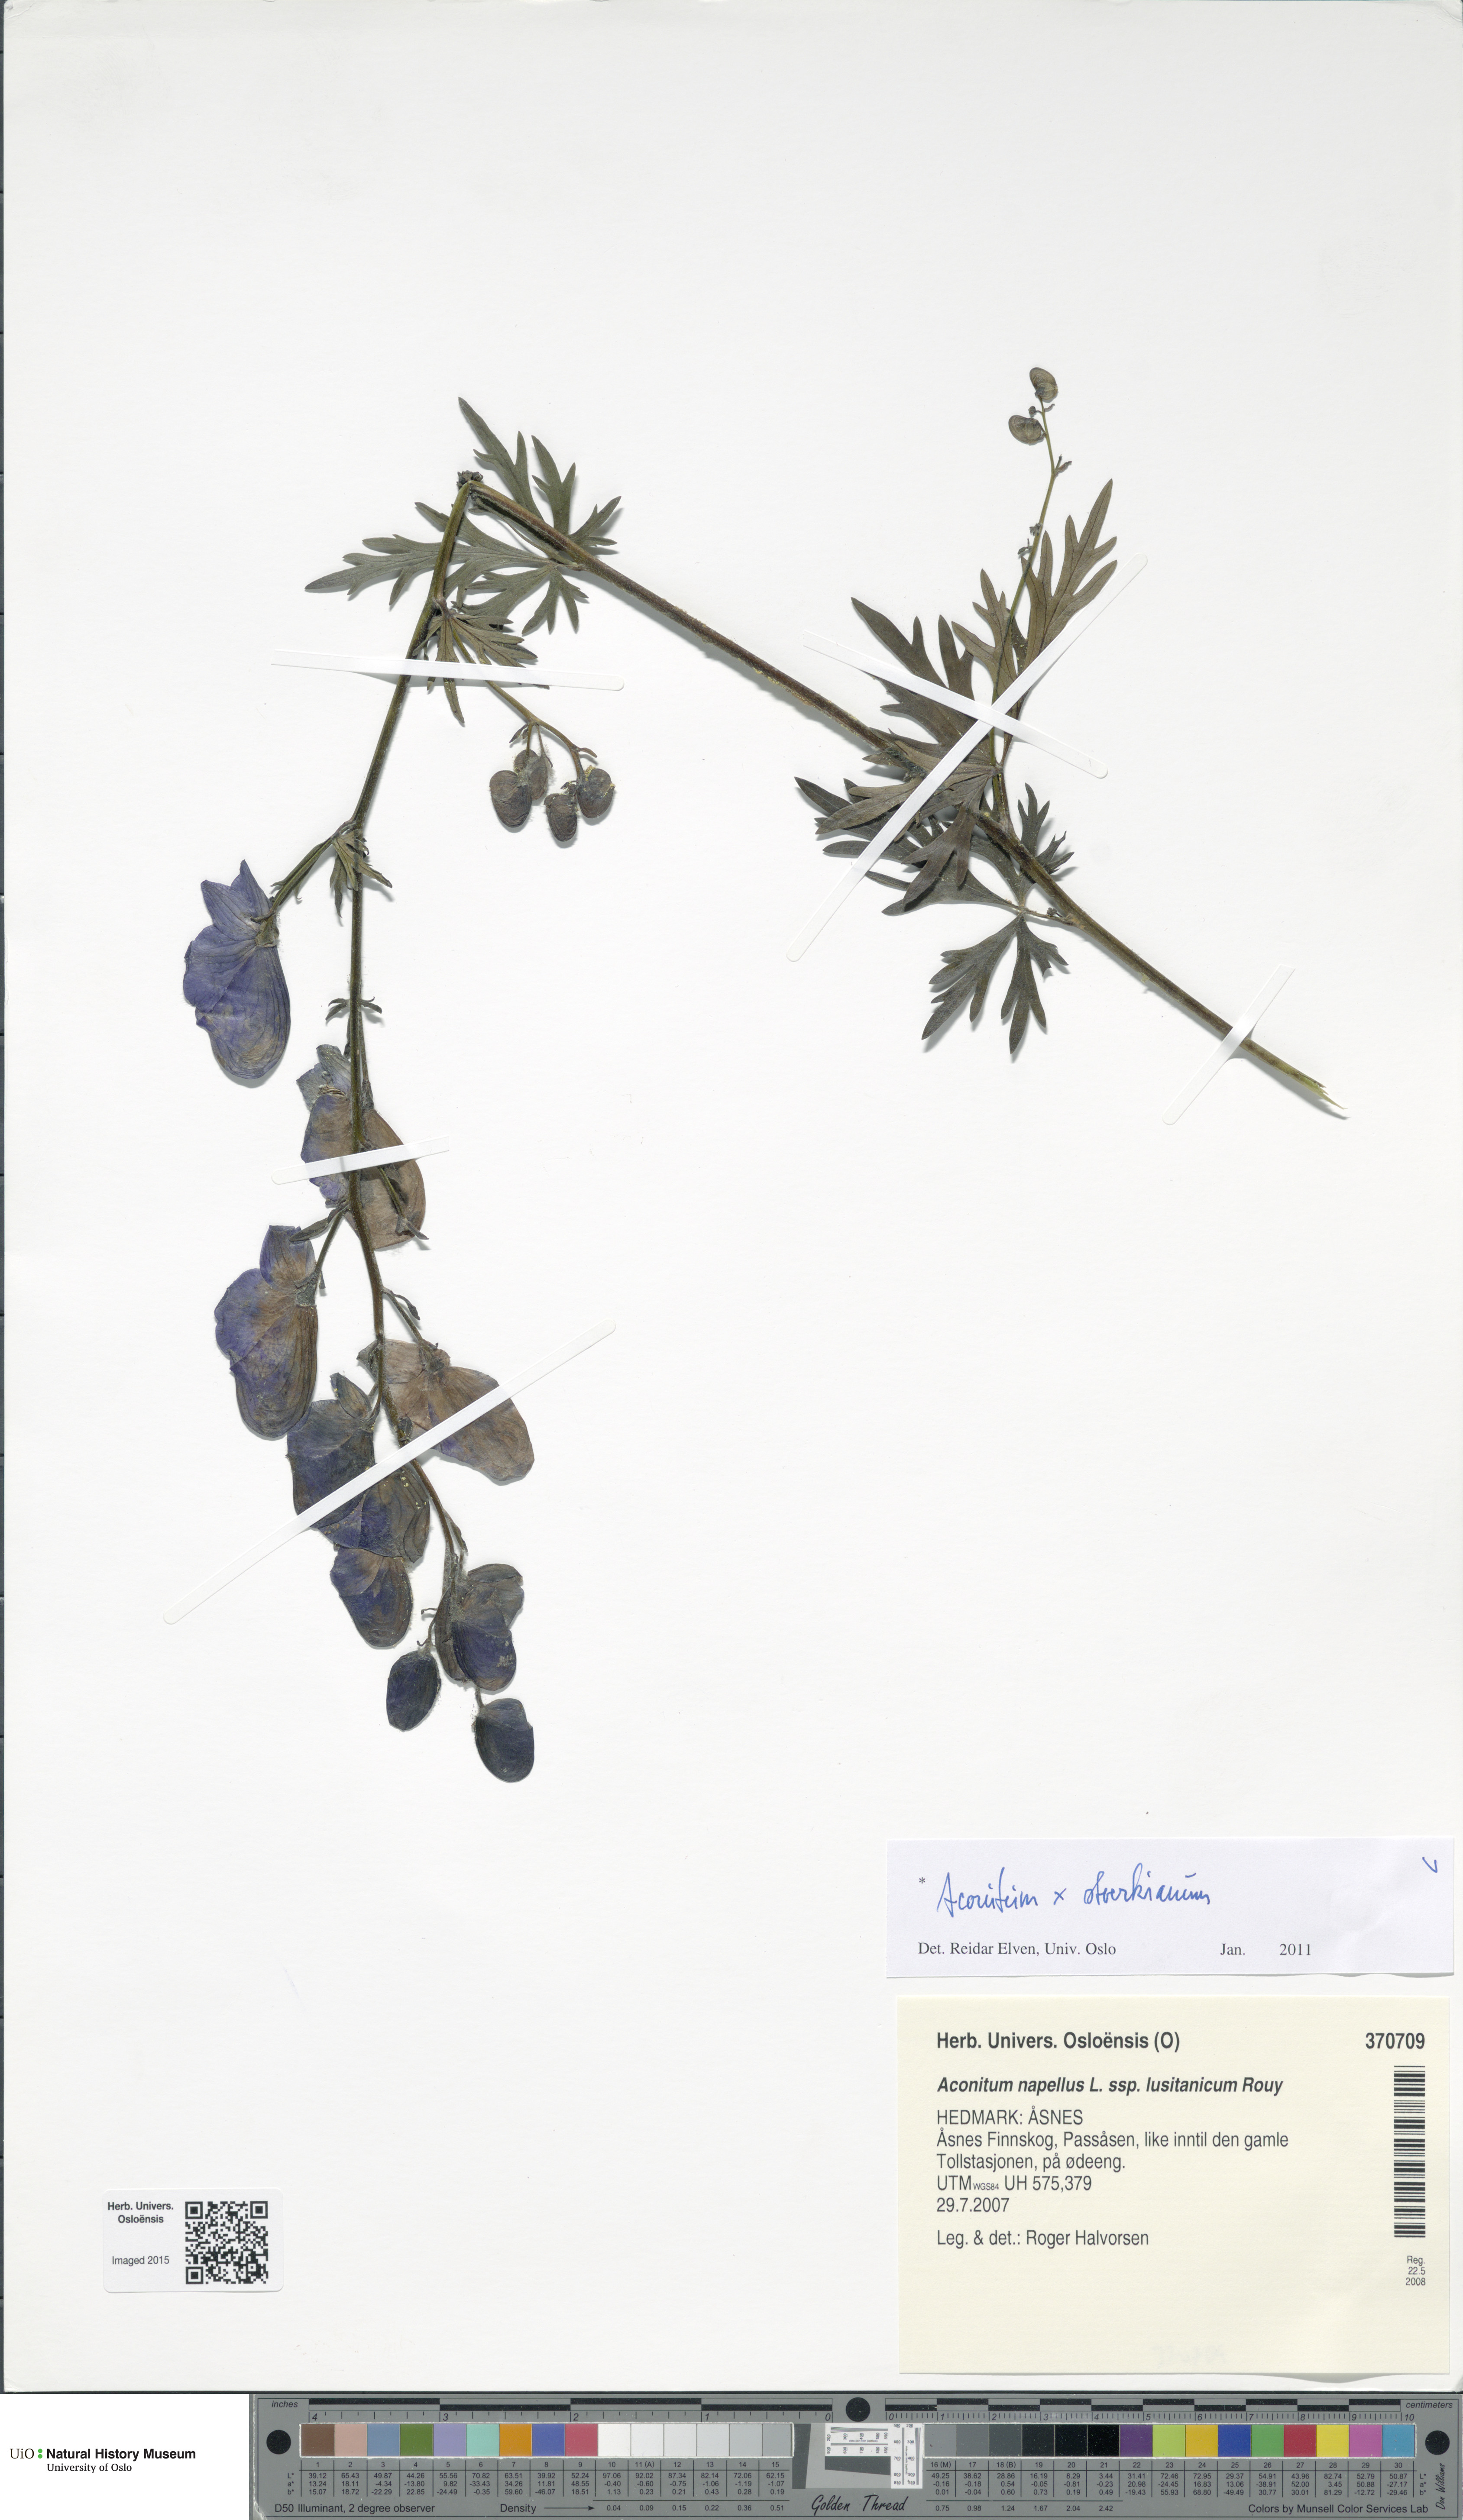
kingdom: Plantae
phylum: Tracheophyta
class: Magnoliopsida
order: Ranunculales
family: Ranunculaceae
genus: Aconitum
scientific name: Aconitum cammarum
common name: Hybrid monk's-hood
